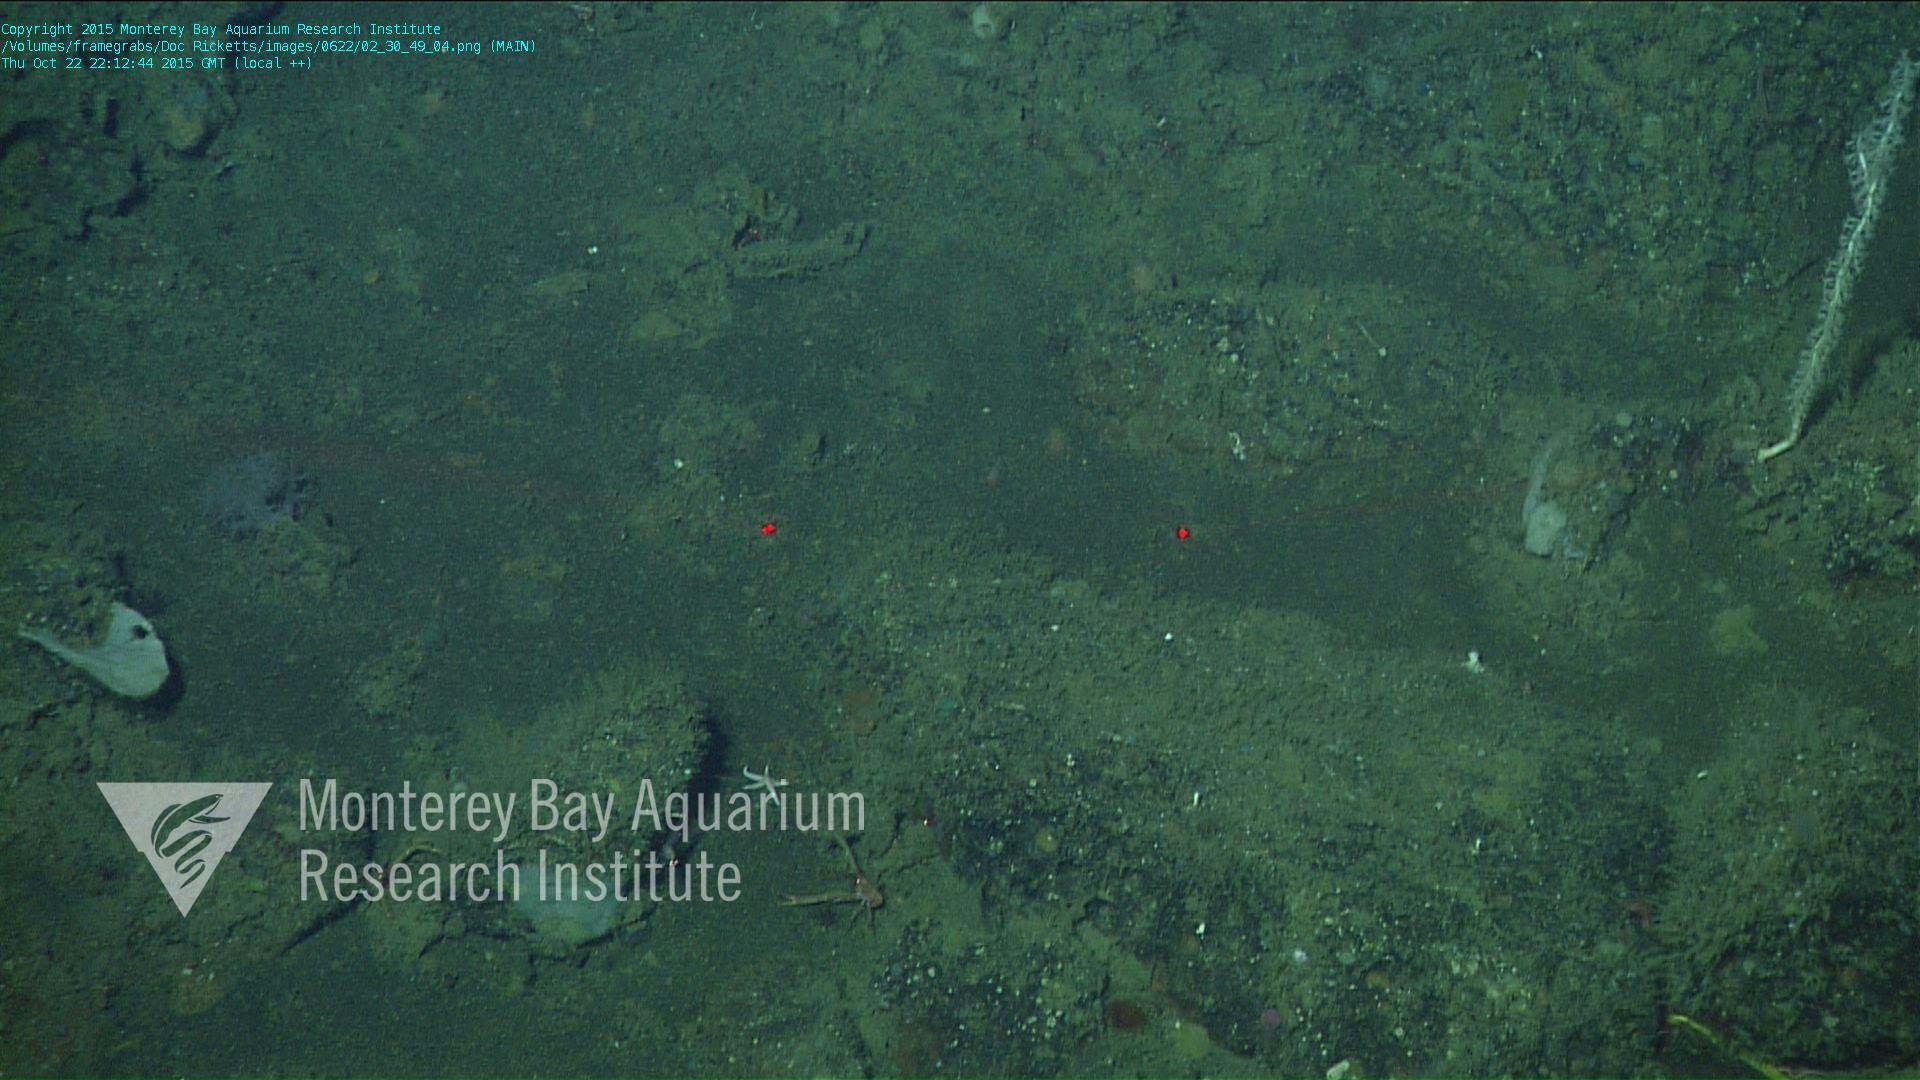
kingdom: Animalia
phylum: Cnidaria
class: Anthozoa
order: Malacalcyonacea
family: Alcyoniidae
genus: Gersemia
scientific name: Gersemia juliepackardae
